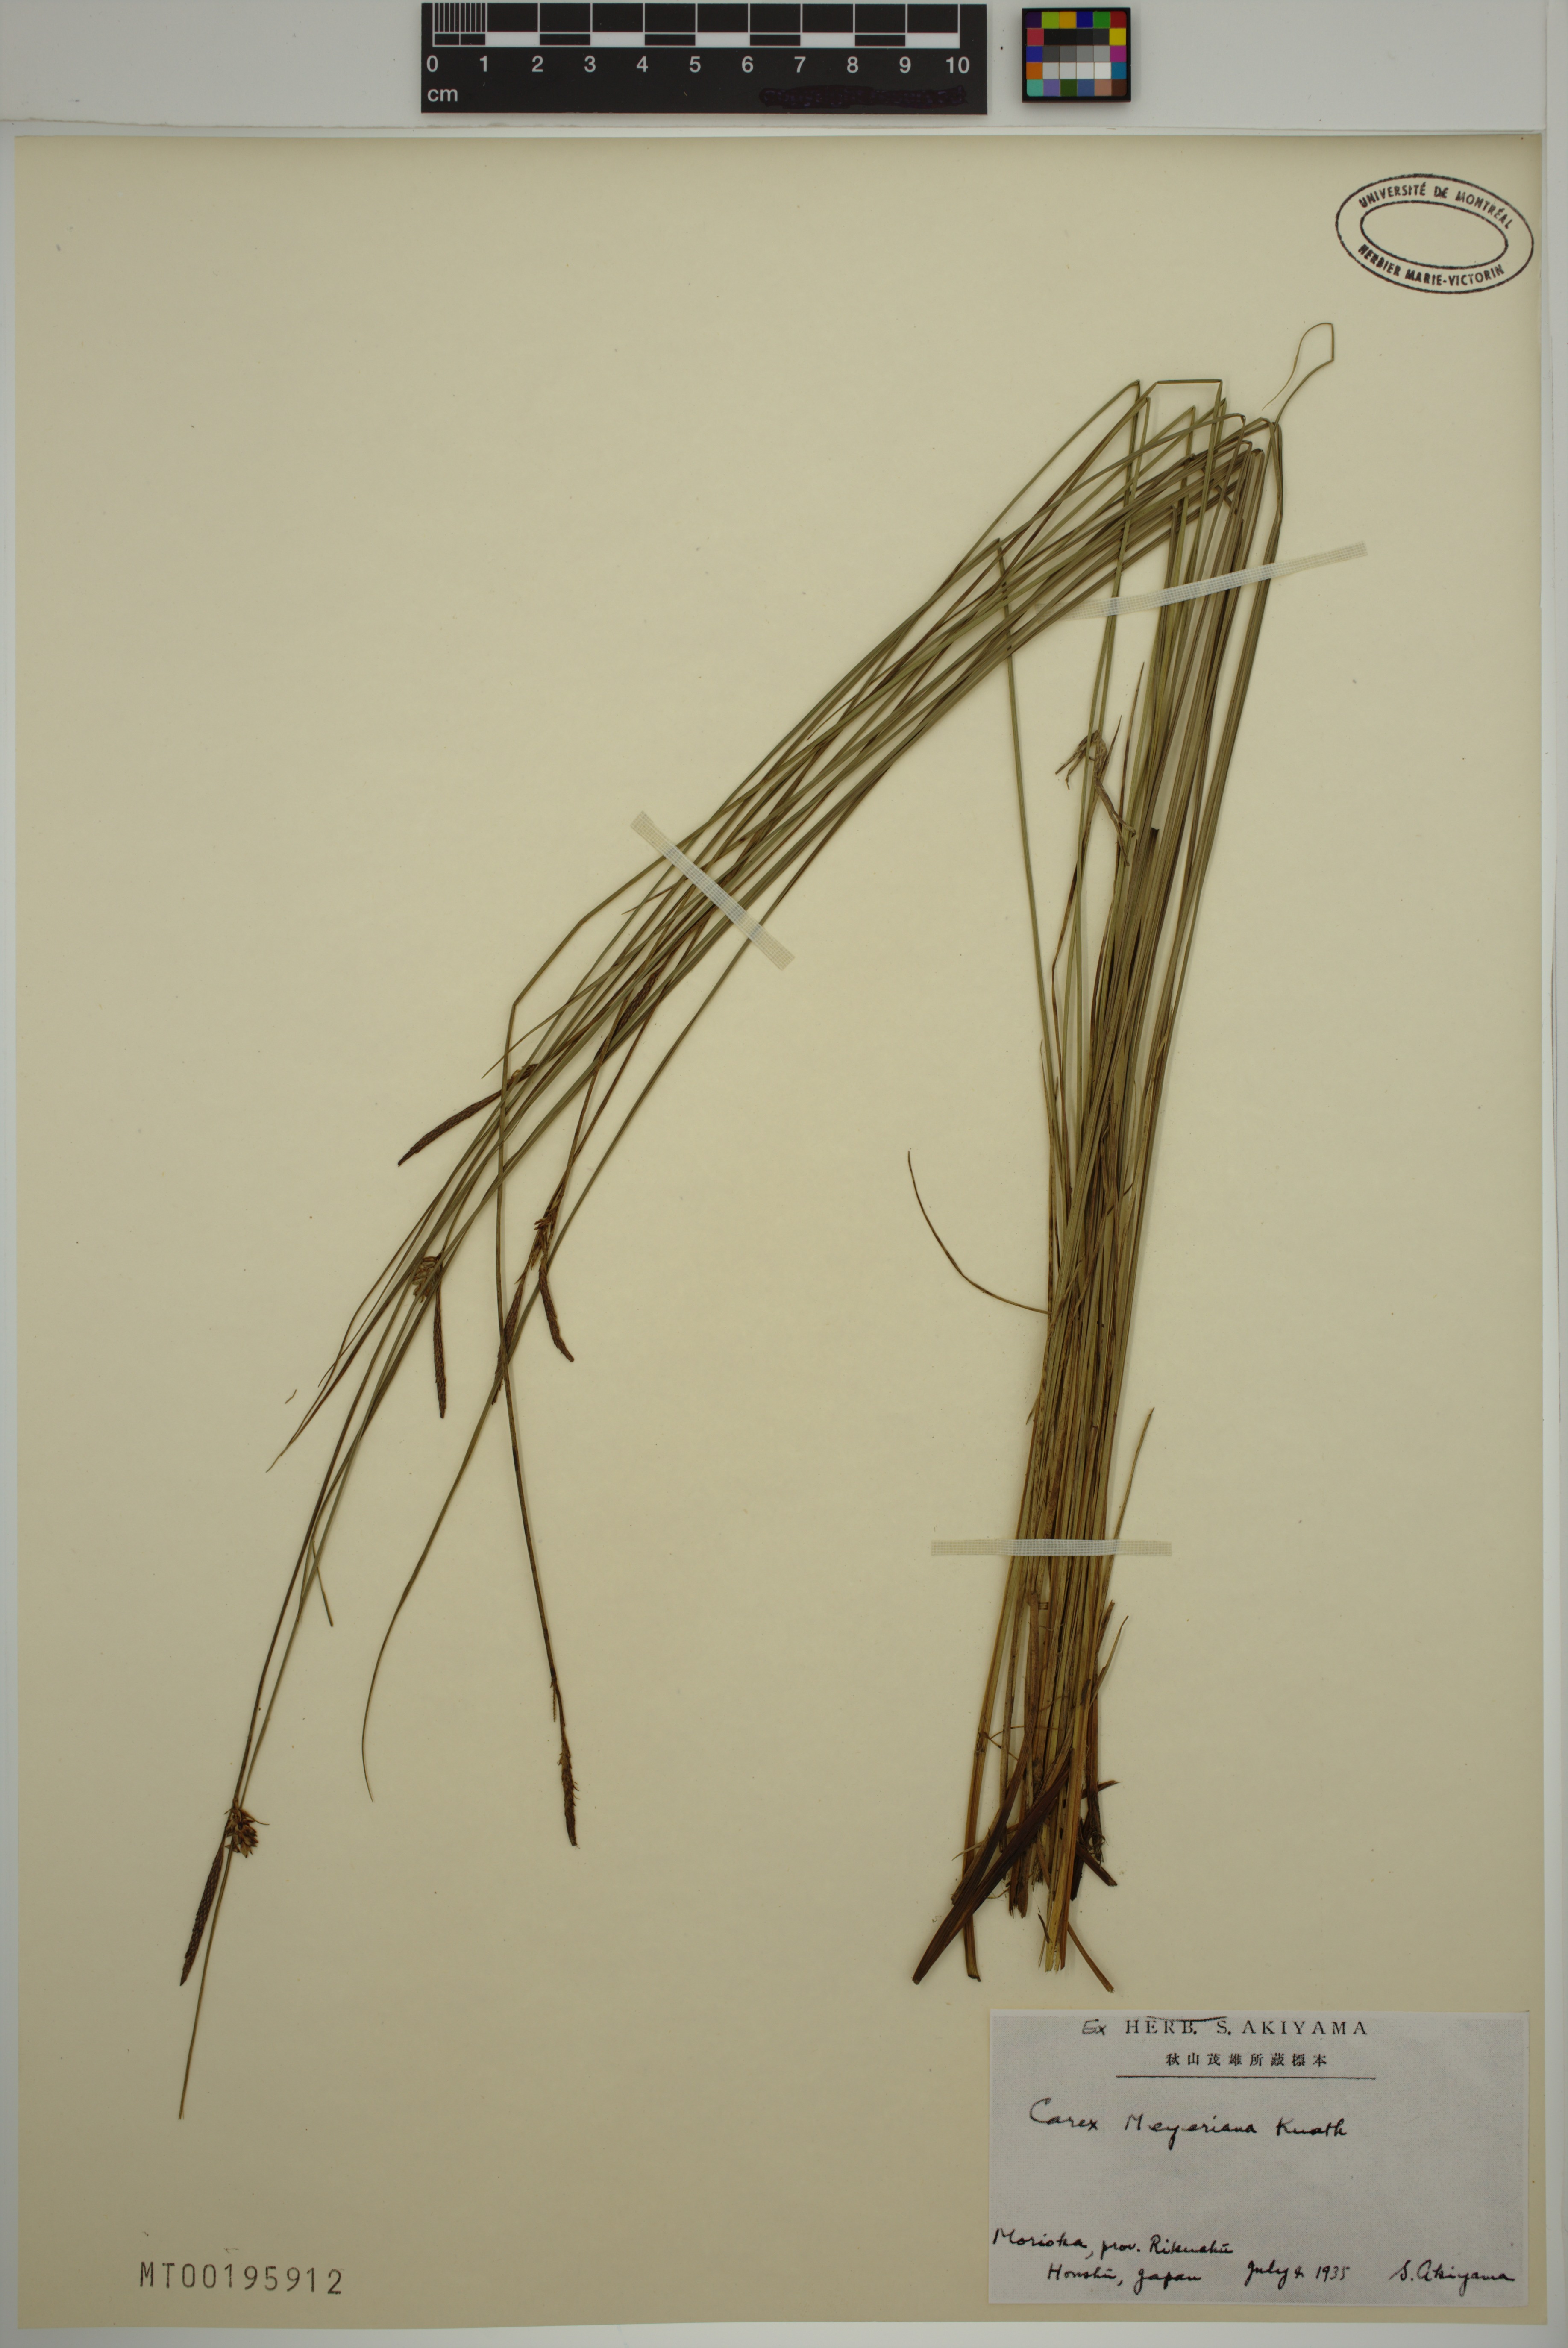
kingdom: Plantae
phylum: Tracheophyta
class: Liliopsida
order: Poales
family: Cyperaceae
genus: Carex
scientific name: Carex meyeriana
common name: Wula sedge
